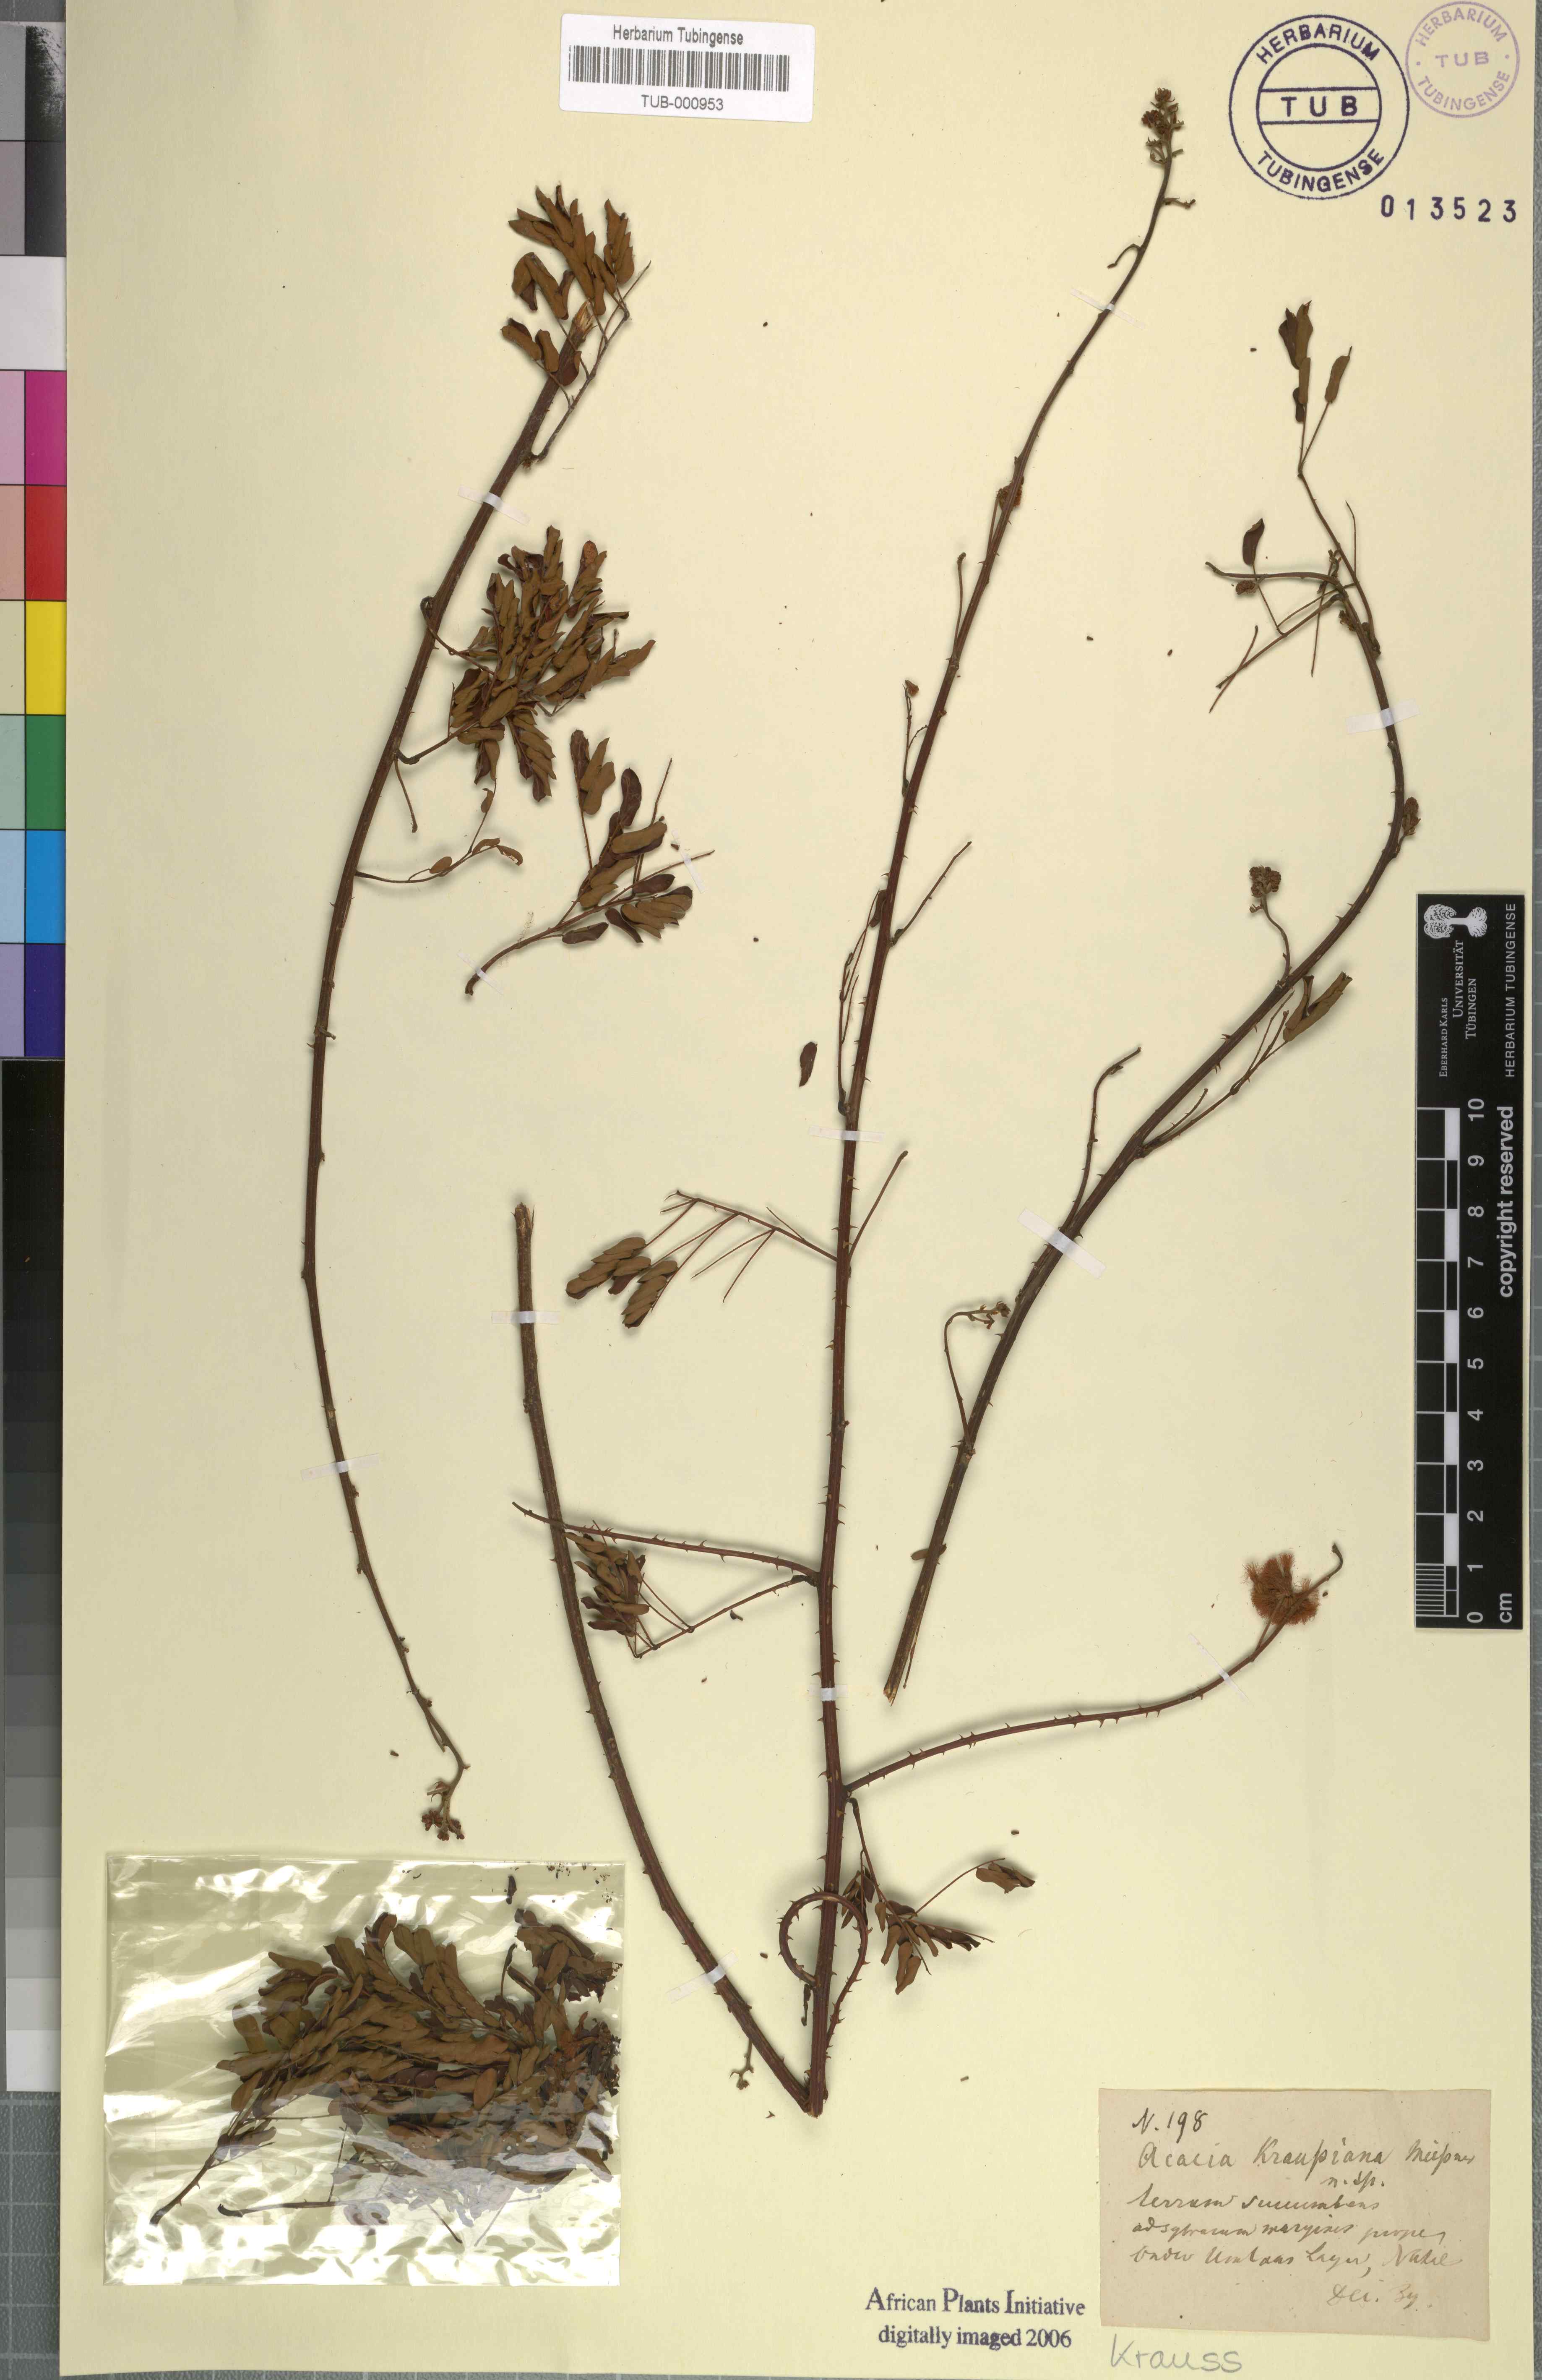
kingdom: Plantae
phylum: Tracheophyta
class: Magnoliopsida
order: Fabales
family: Fabaceae
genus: Senegalia
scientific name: Senegalia kraussiana
